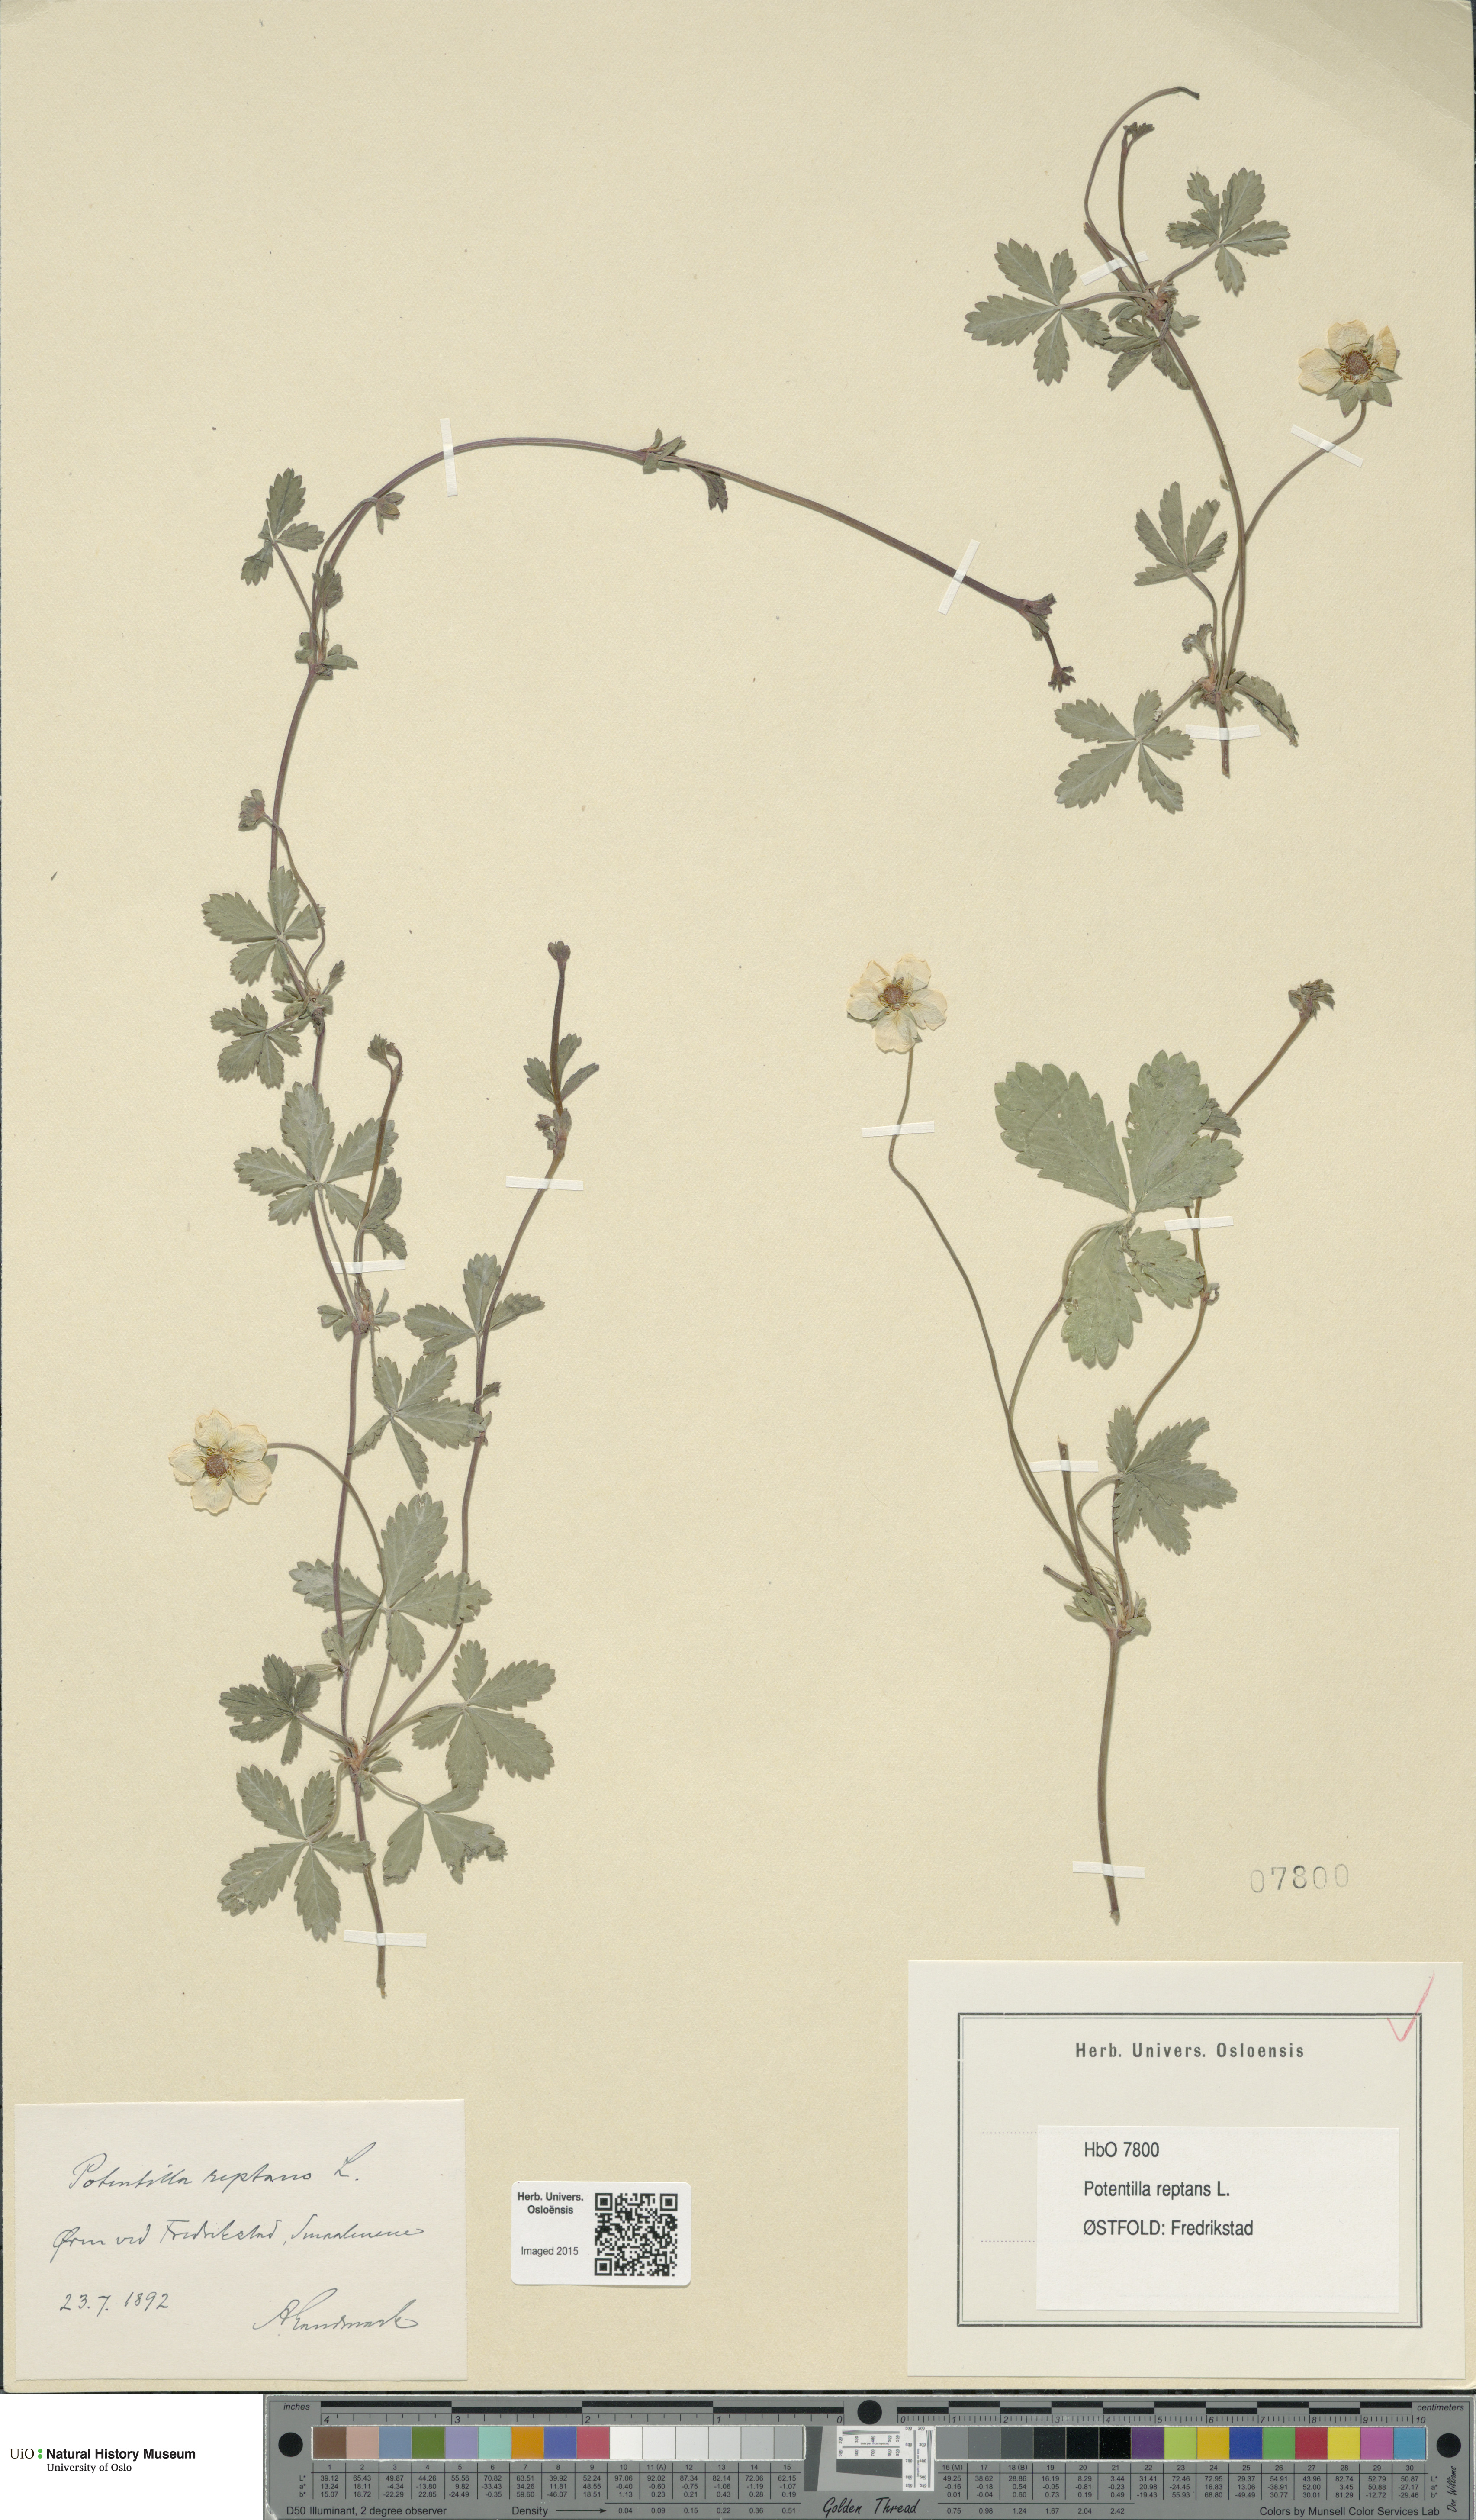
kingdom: Plantae
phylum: Tracheophyta
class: Magnoliopsida
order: Rosales
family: Rosaceae
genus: Potentilla
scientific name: Potentilla reptans
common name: Creeping cinquefoil
